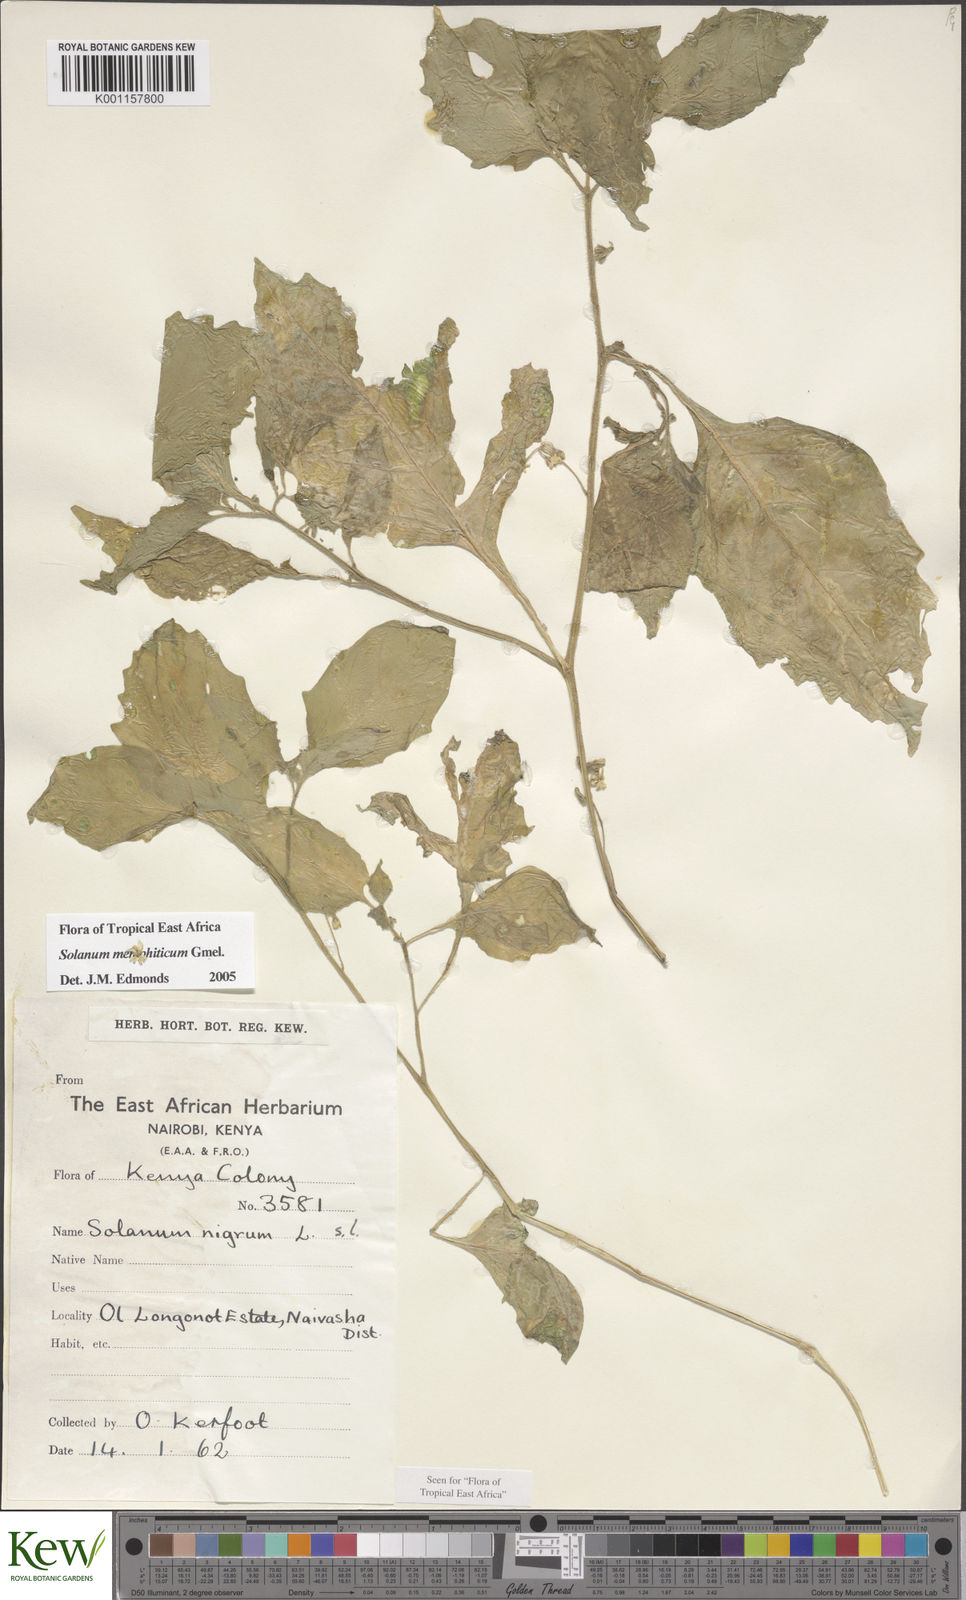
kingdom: Plantae
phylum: Tracheophyta
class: Magnoliopsida
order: Solanales
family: Solanaceae
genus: Solanum
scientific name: Solanum memphiticum
